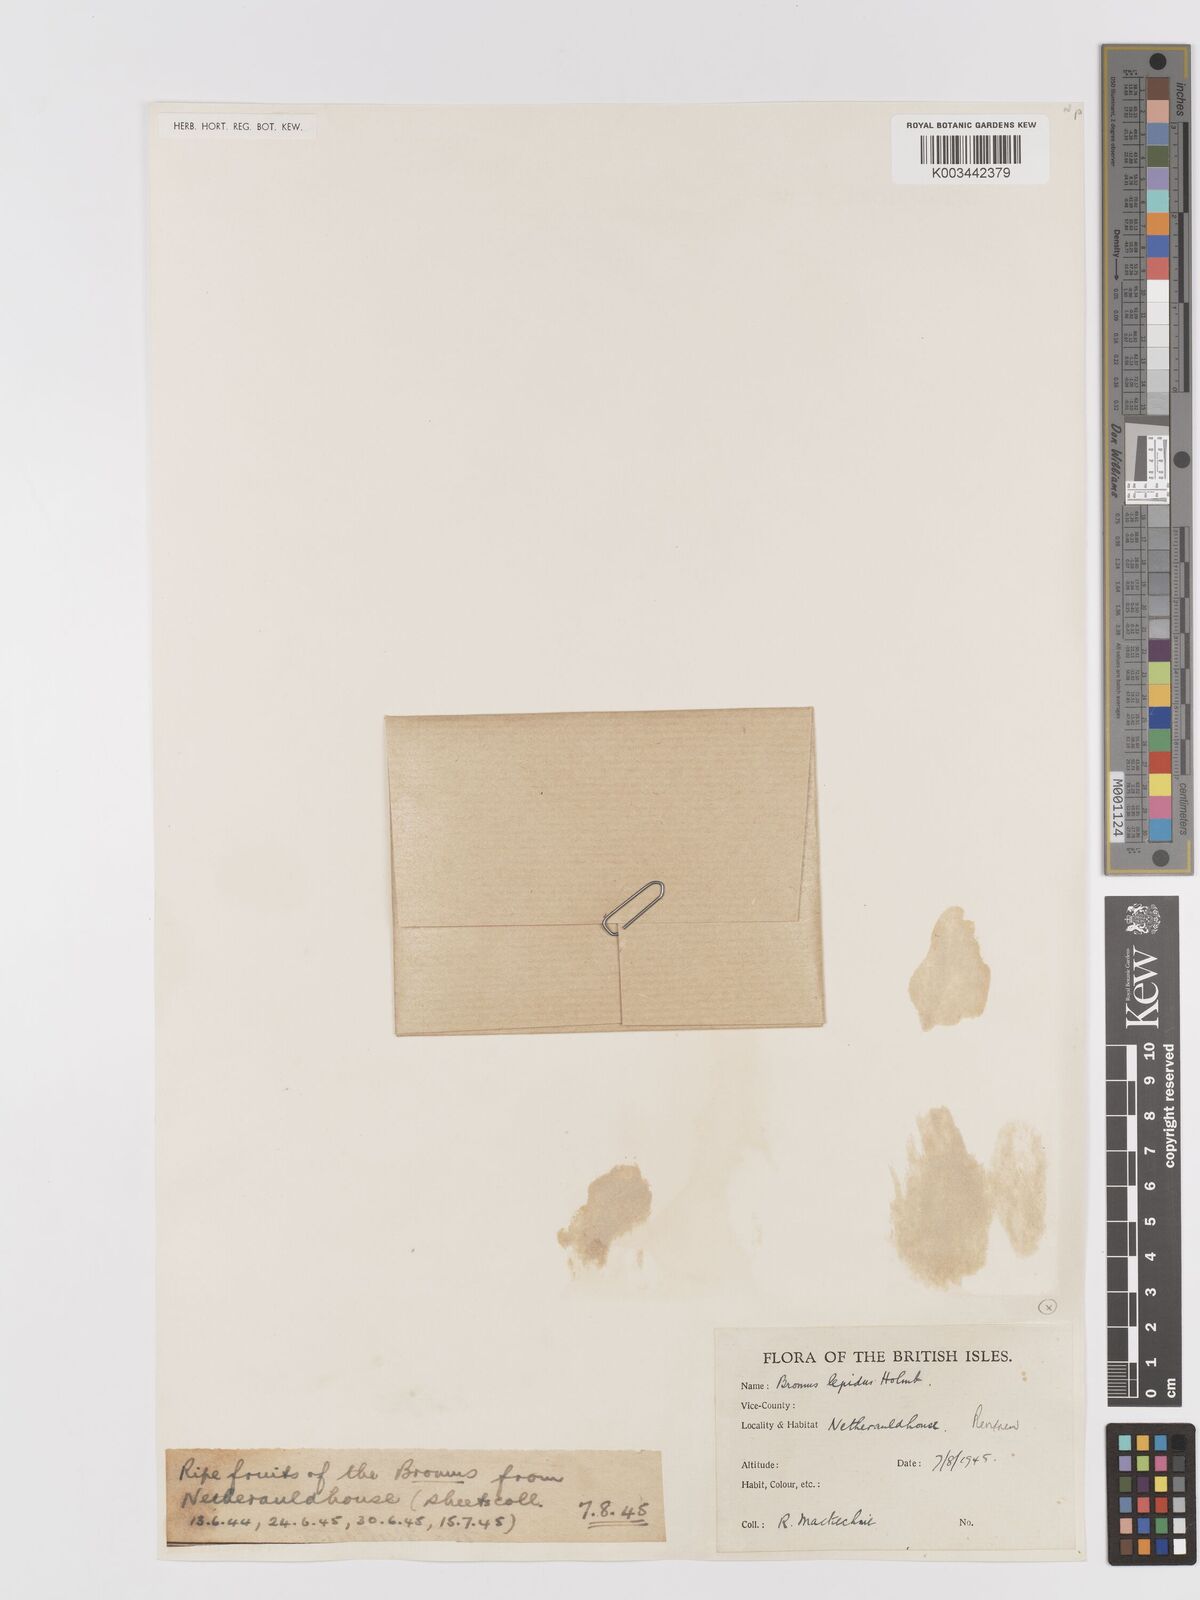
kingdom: Plantae
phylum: Tracheophyta
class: Liliopsida
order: Poales
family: Poaceae
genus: Bromus
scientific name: Bromus lepidus
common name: Slender soft-brome
